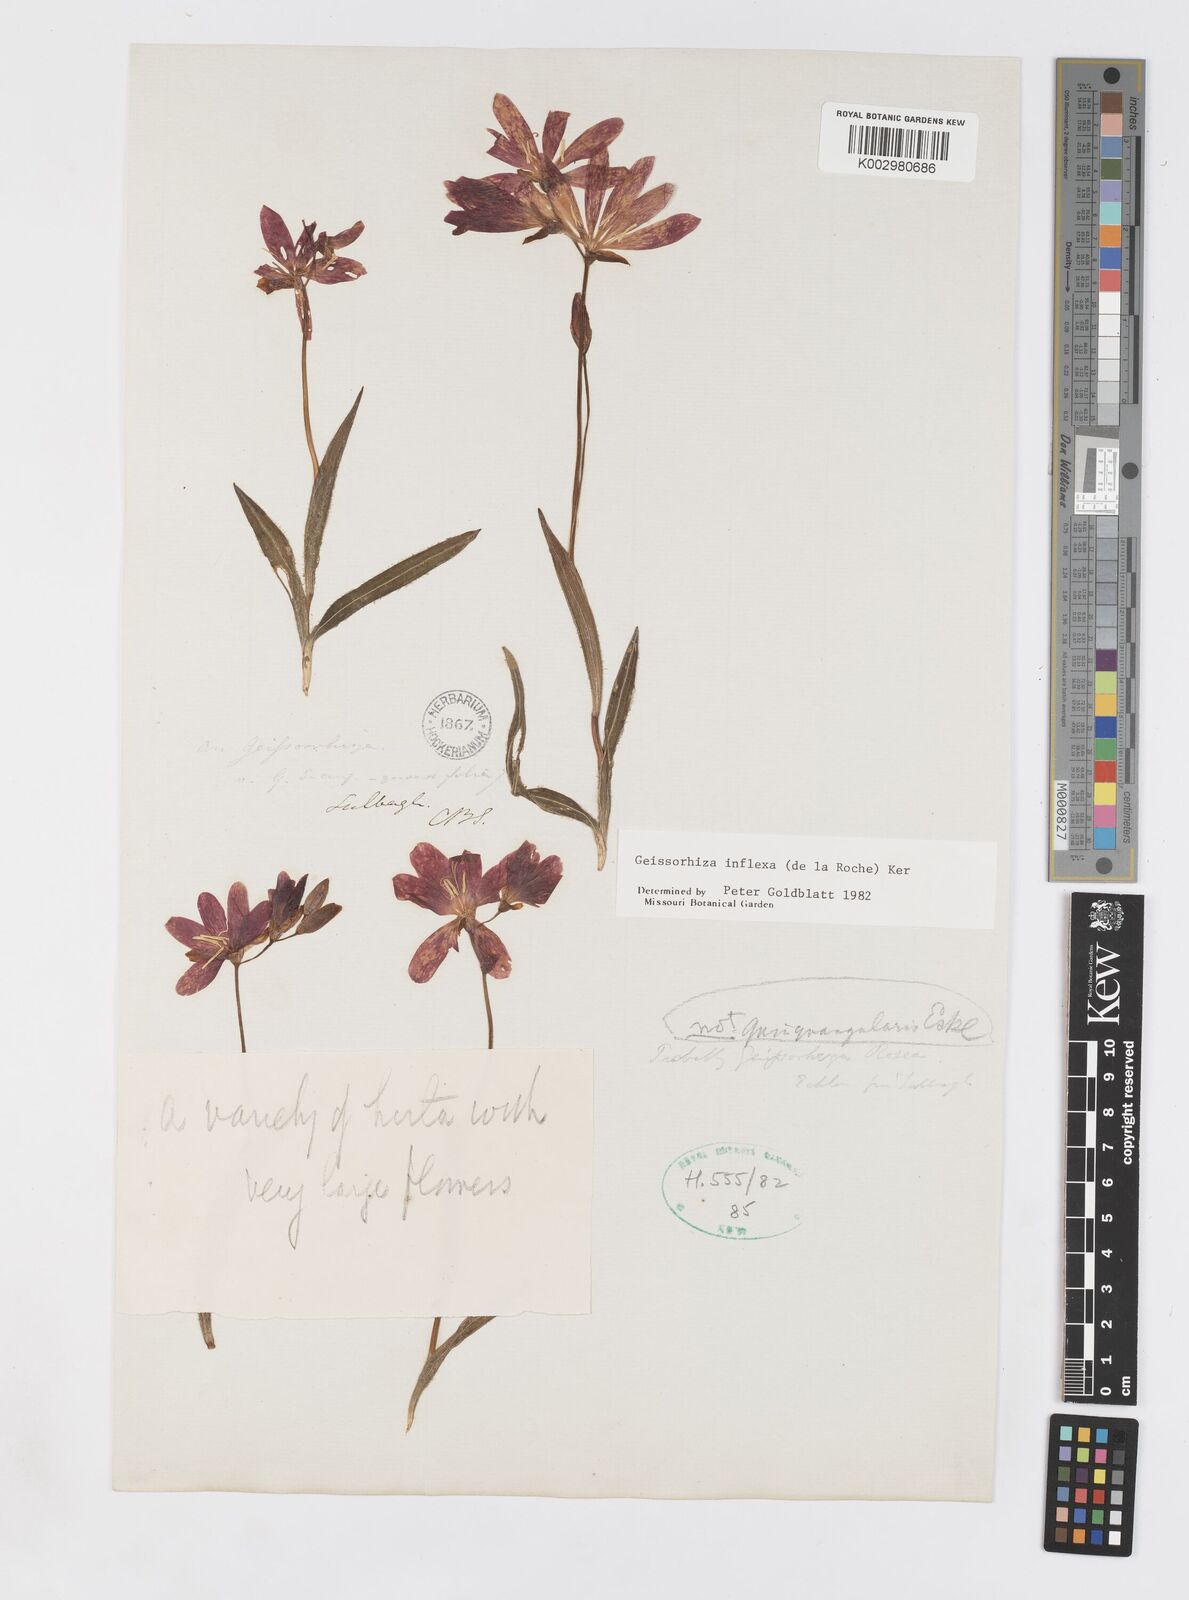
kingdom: Plantae
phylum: Tracheophyta
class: Liliopsida
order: Asparagales
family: Iridaceae
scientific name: Iridaceae
